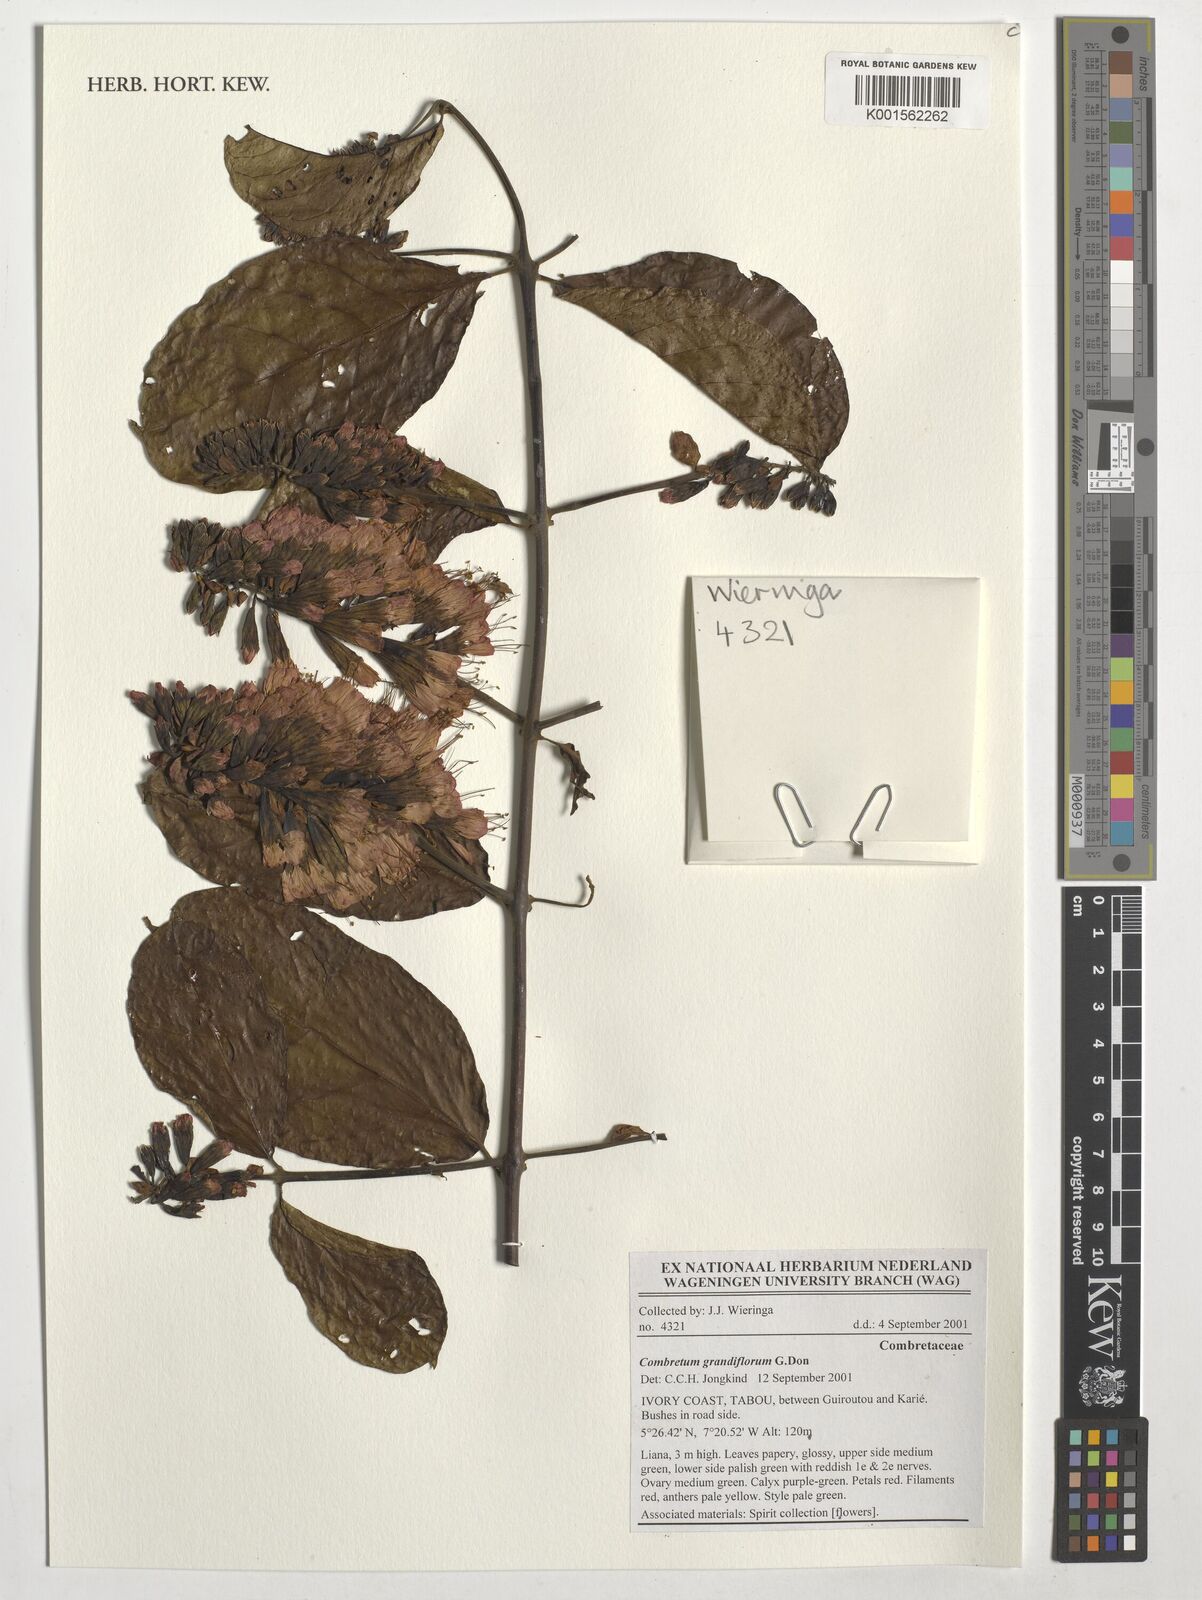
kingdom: Plantae
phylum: Tracheophyta
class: Magnoliopsida
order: Myrtales
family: Combretaceae
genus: Combretum
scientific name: Combretum grandiflorum
